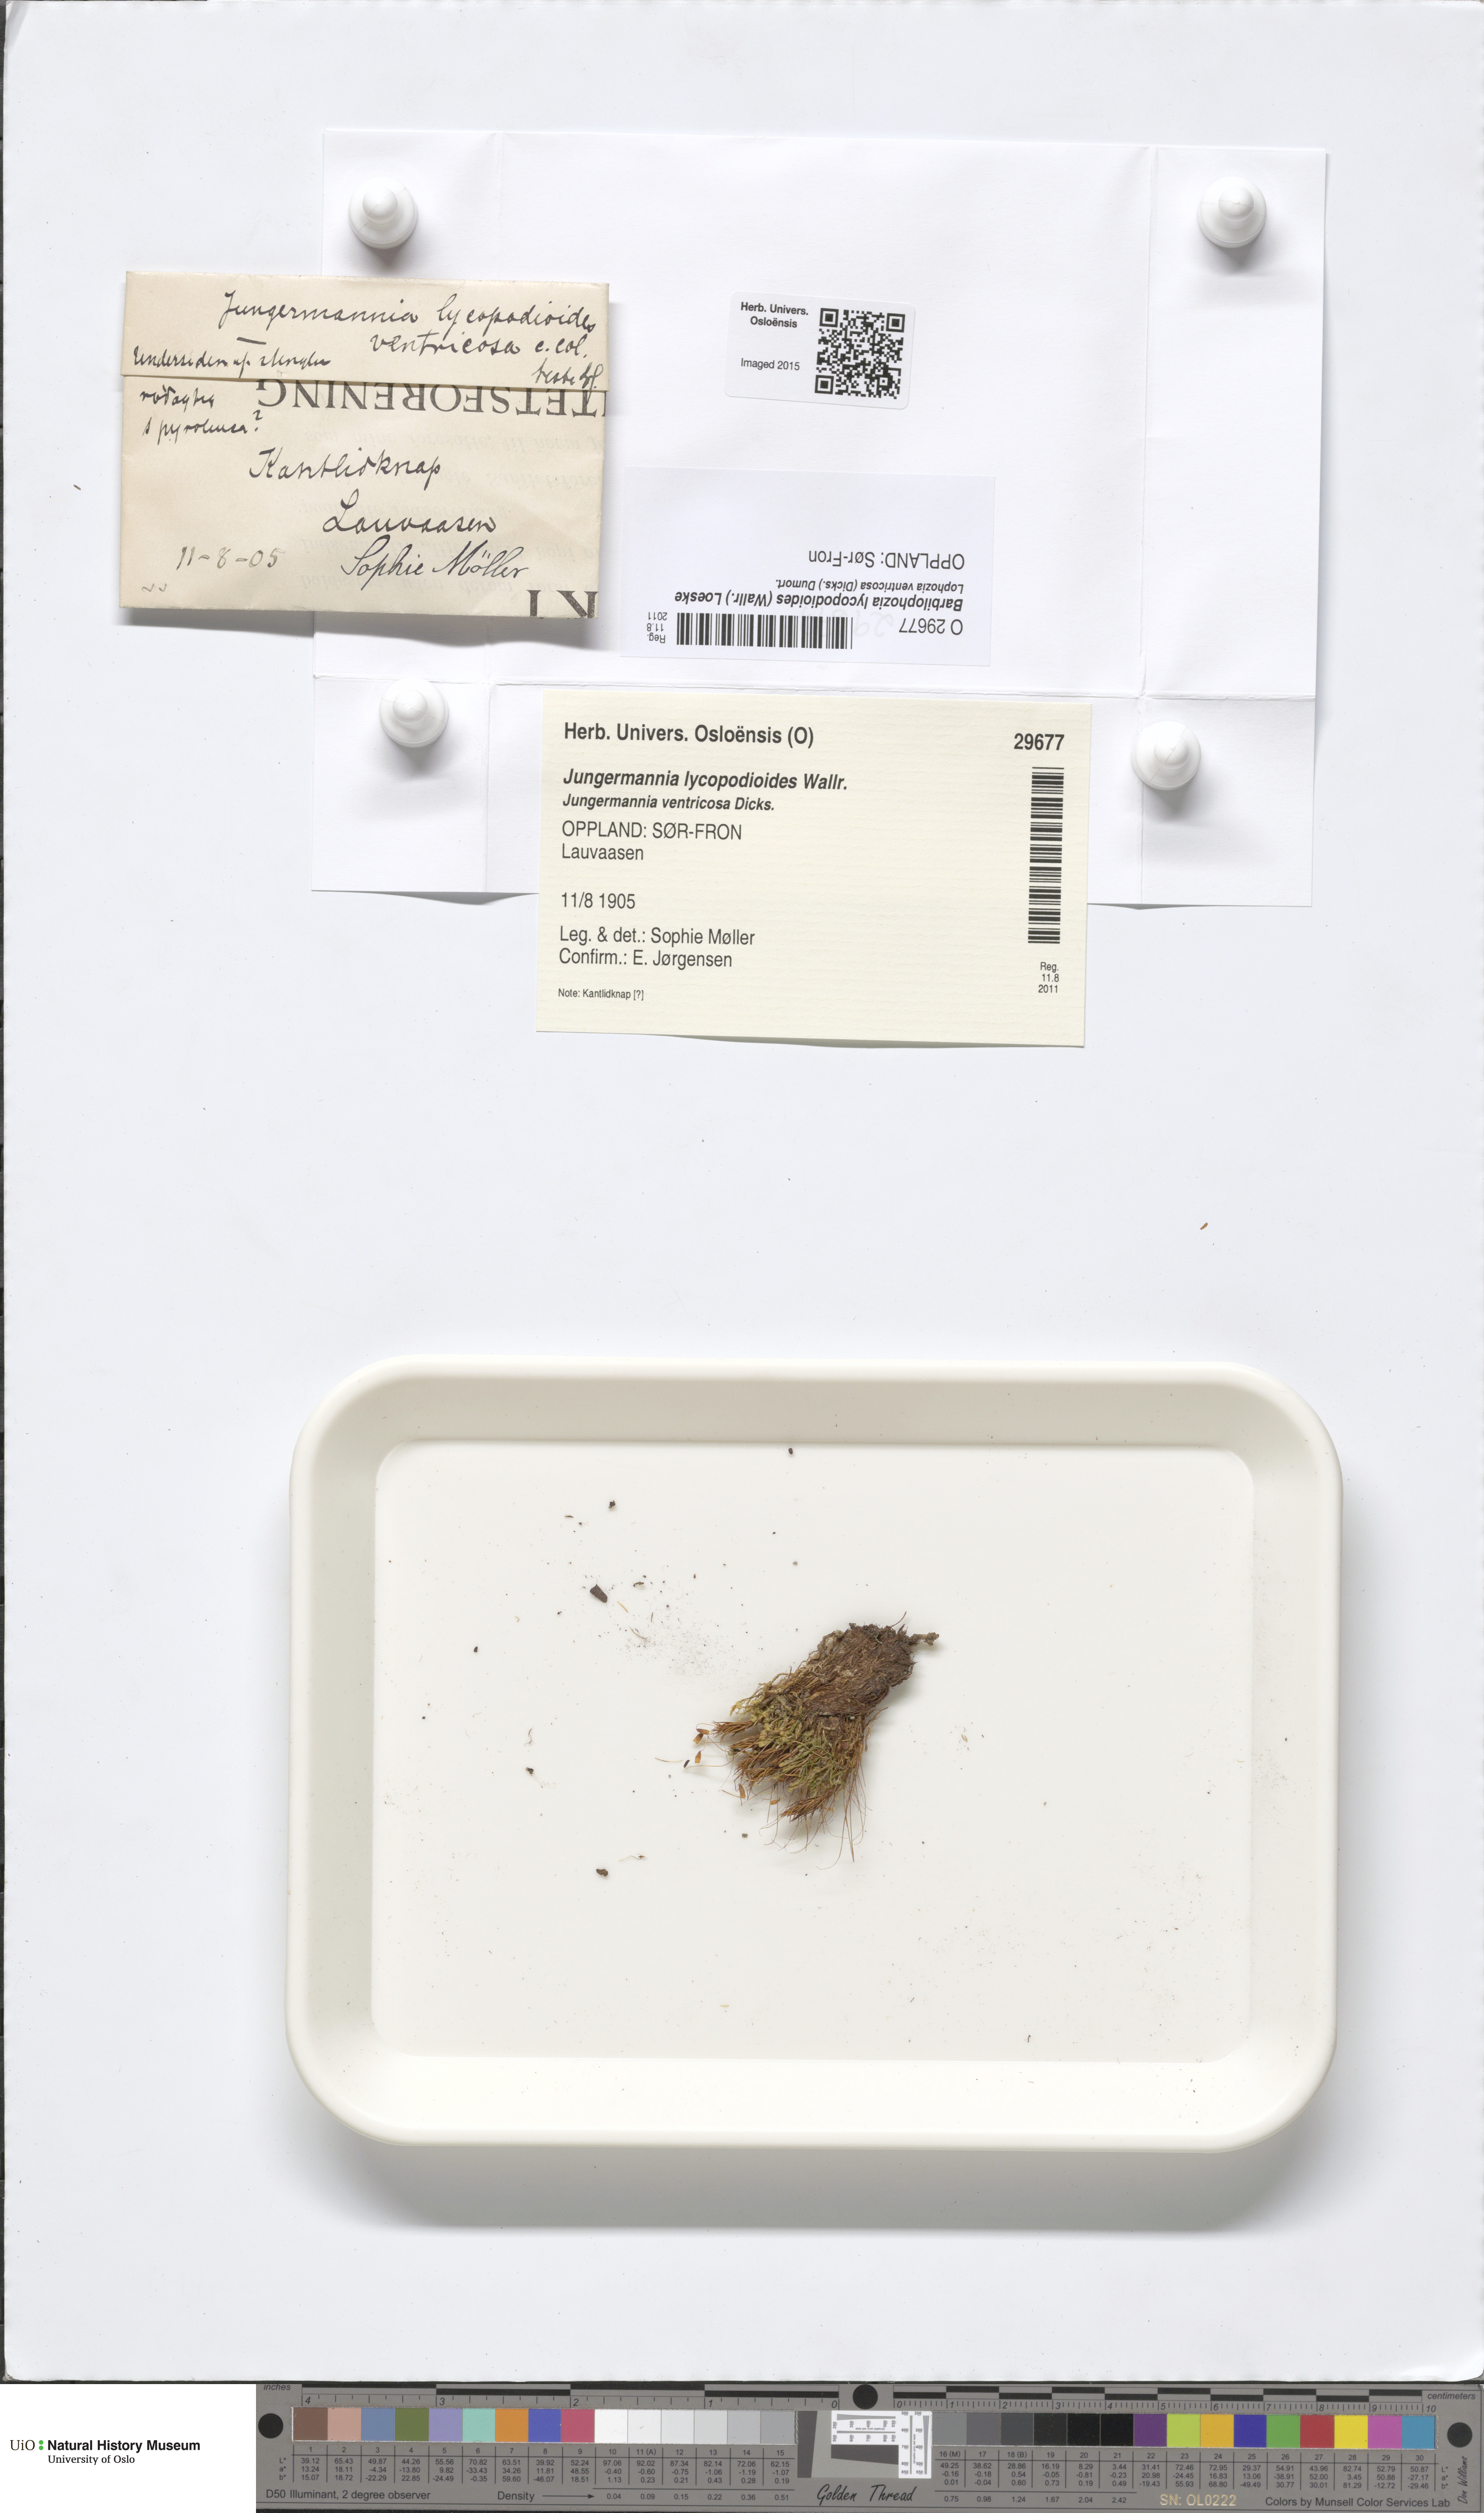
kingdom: Plantae
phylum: Marchantiophyta
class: Jungermanniopsida
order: Jungermanniales
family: Anastrophyllaceae
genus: Barbilophozia
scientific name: Barbilophozia lycopodioides
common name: Greater pawwort
